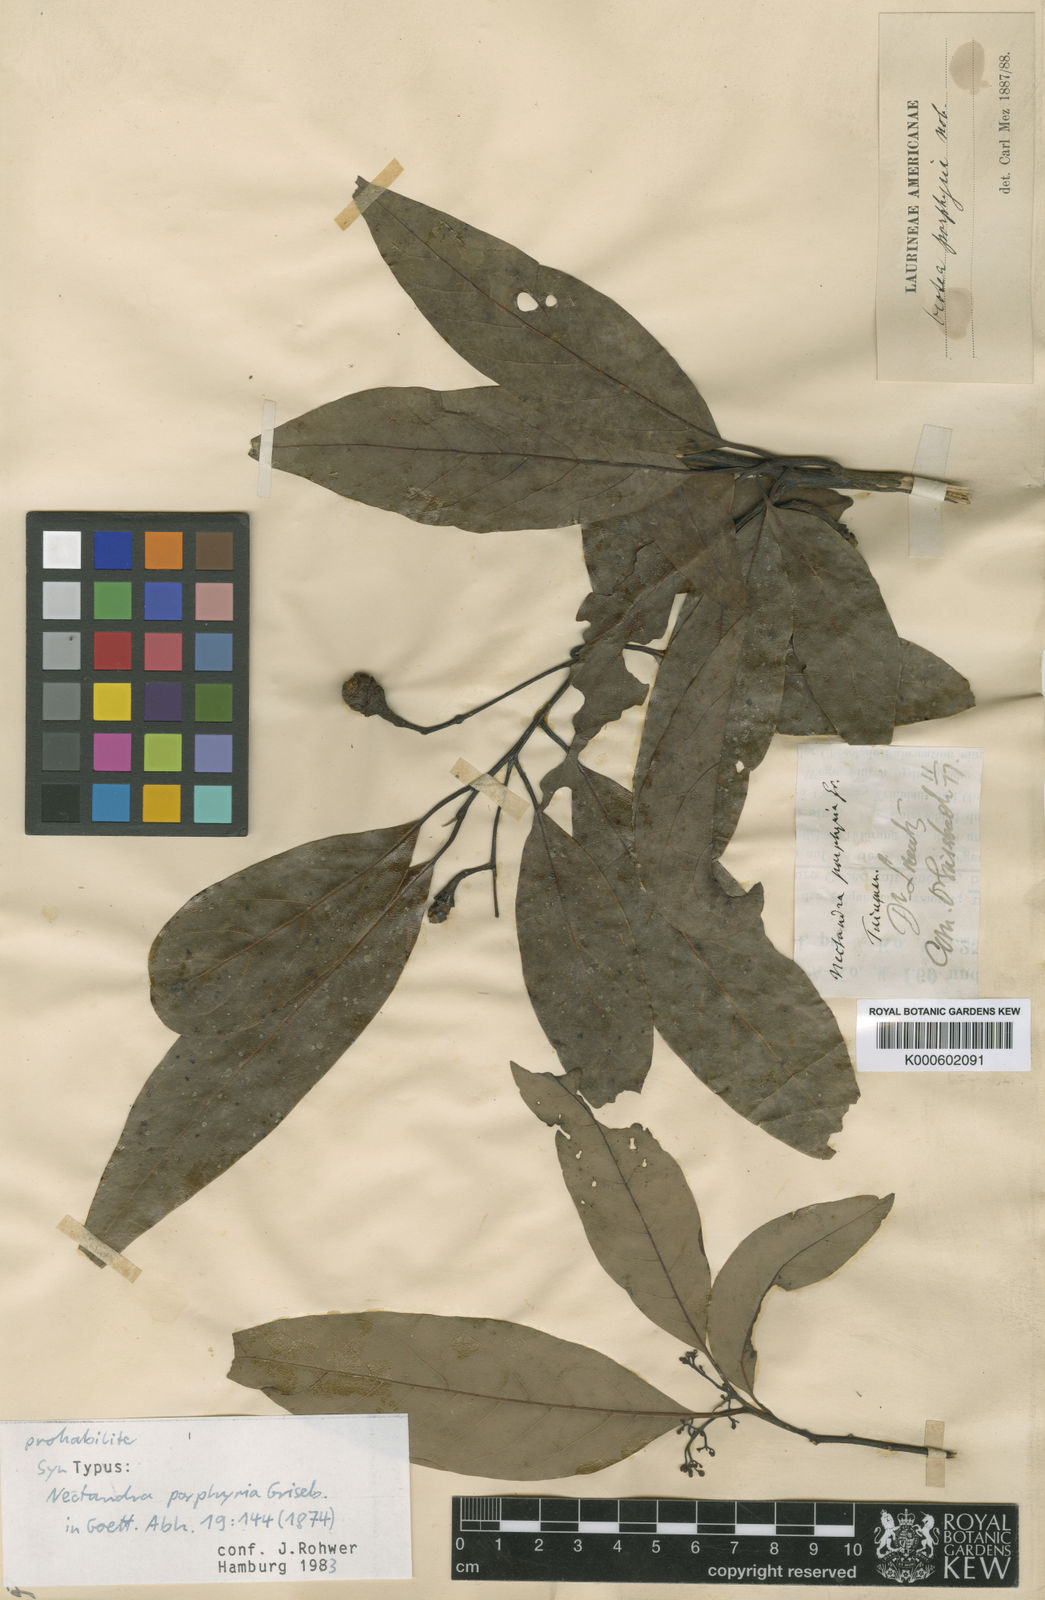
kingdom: Plantae
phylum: Tracheophyta
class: Magnoliopsida
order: Laurales
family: Lauraceae
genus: Ocotea
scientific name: Ocotea porphyria
